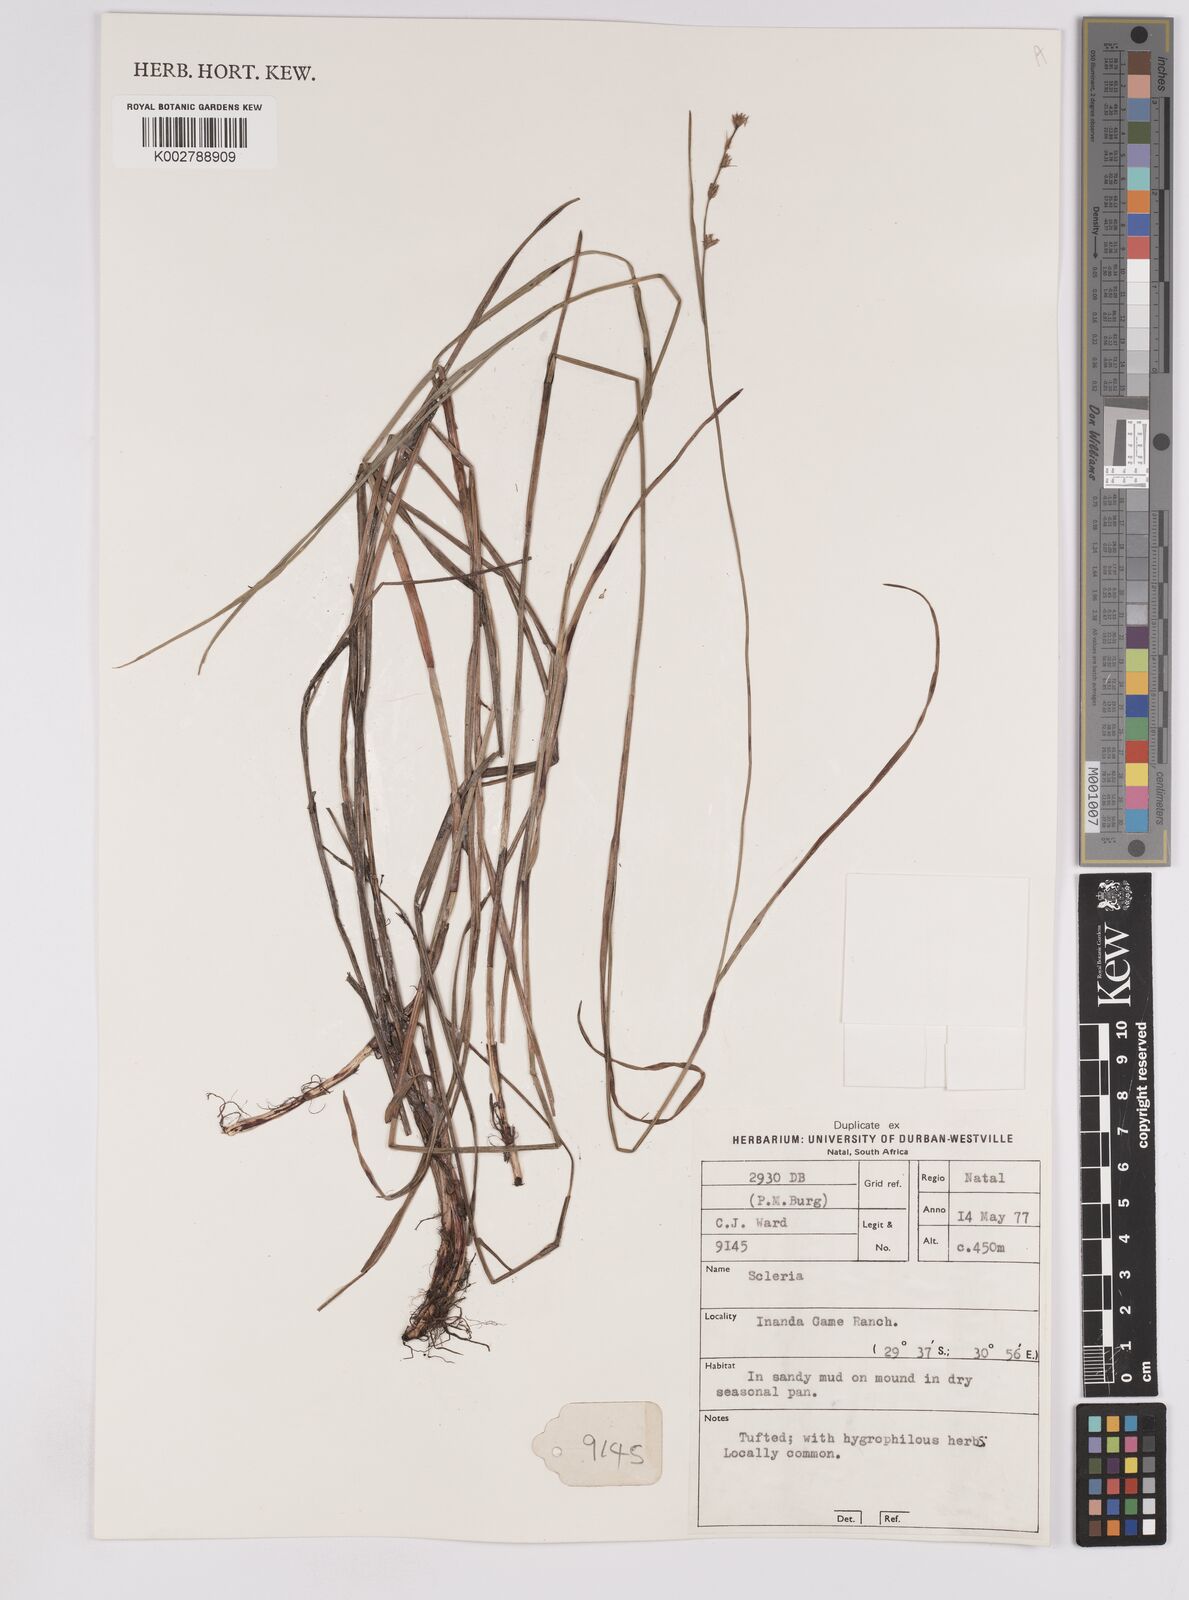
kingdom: Plantae
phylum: Tracheophyta
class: Liliopsida
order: Poales
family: Cyperaceae
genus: Scleria
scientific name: Scleria sobolifera
